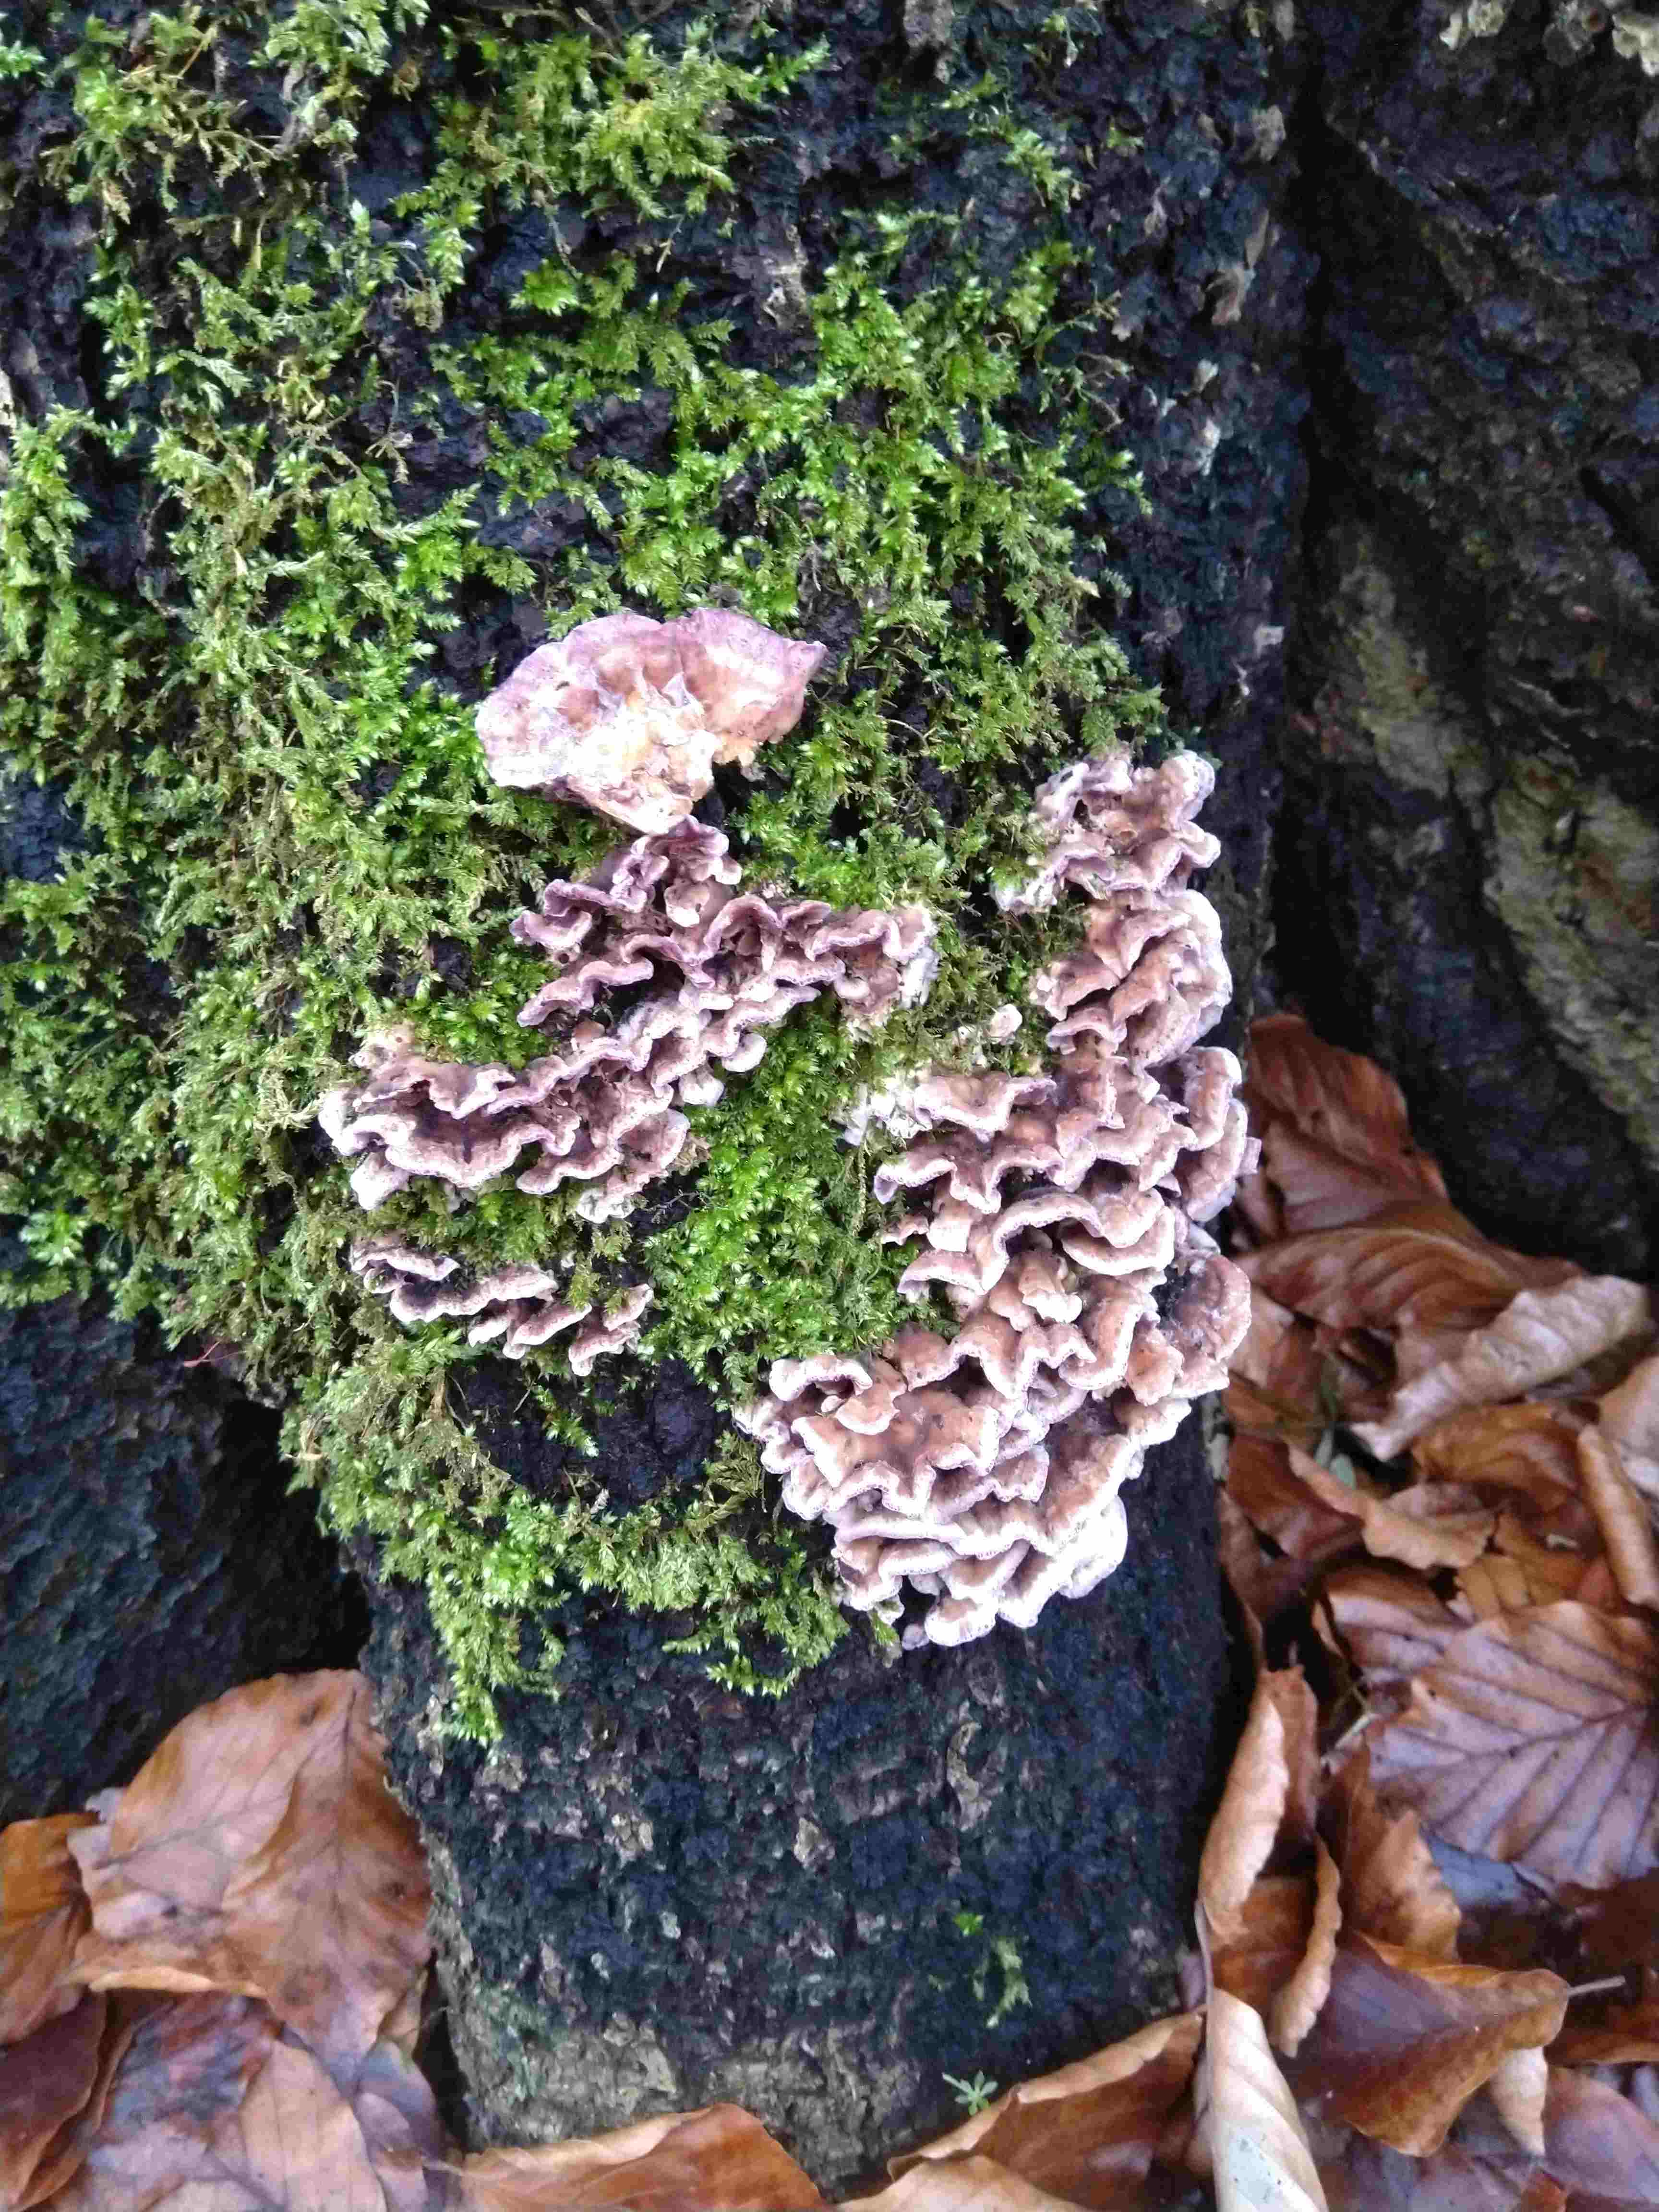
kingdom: Fungi
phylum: Basidiomycota
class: Agaricomycetes
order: Agaricales
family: Cyphellaceae
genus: Chondrostereum
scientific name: Chondrostereum purpureum
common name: purpurlædersvamp
